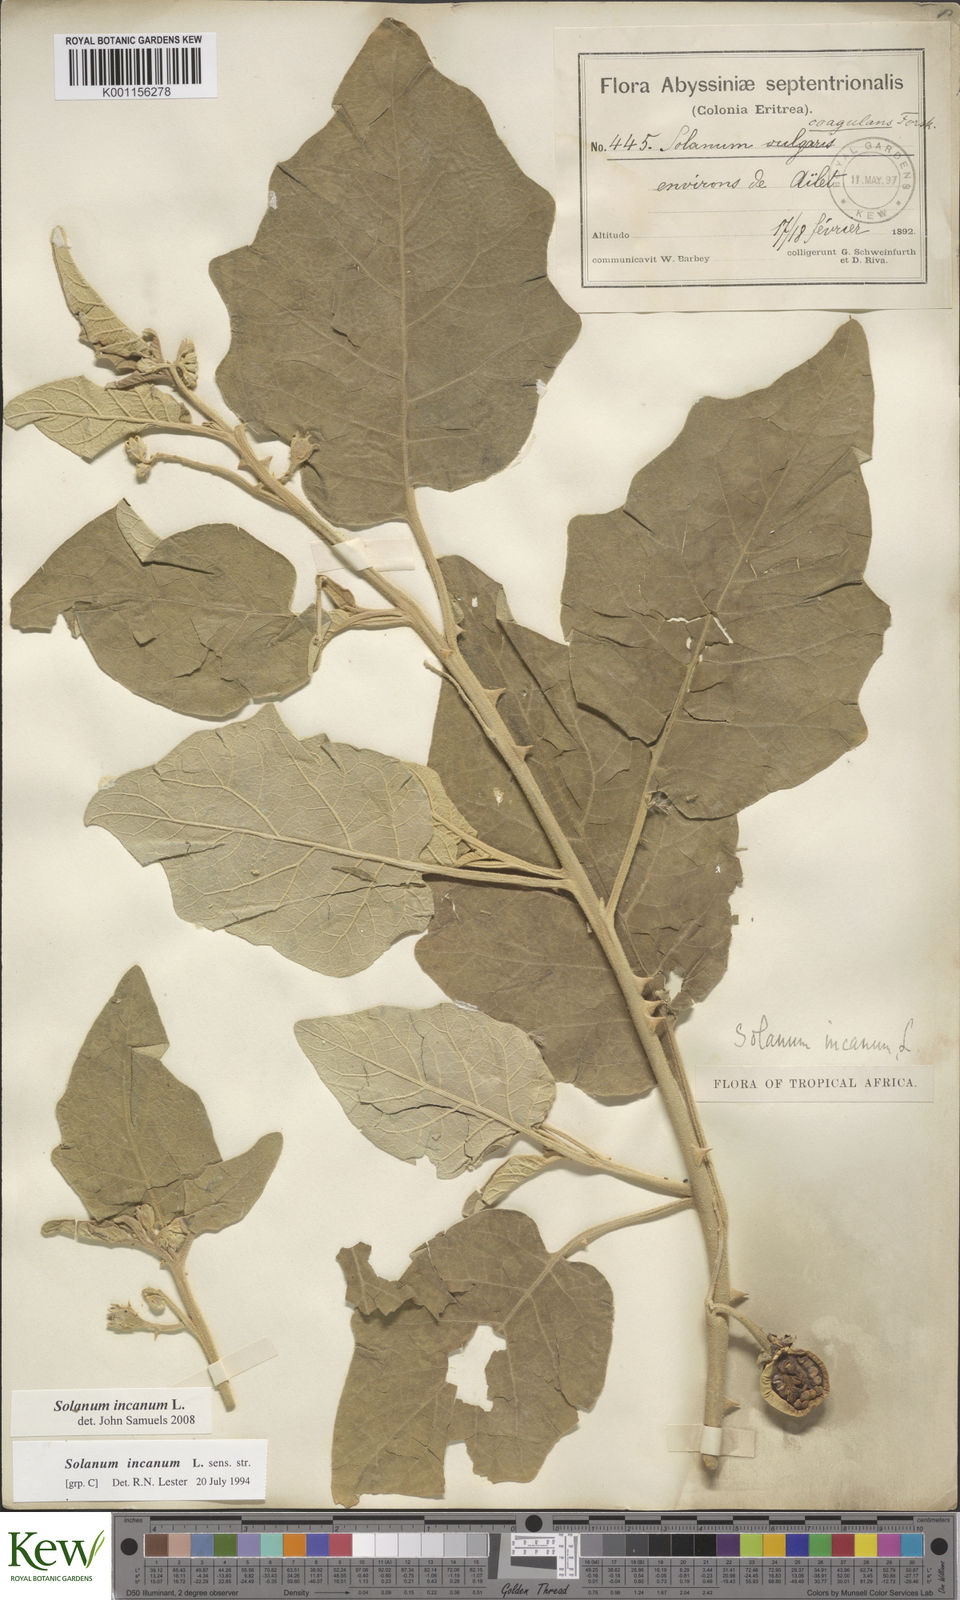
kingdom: Plantae
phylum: Tracheophyta
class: Magnoliopsida
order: Solanales
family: Solanaceae
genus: Solanum
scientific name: Solanum incanum
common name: Bitter apple
